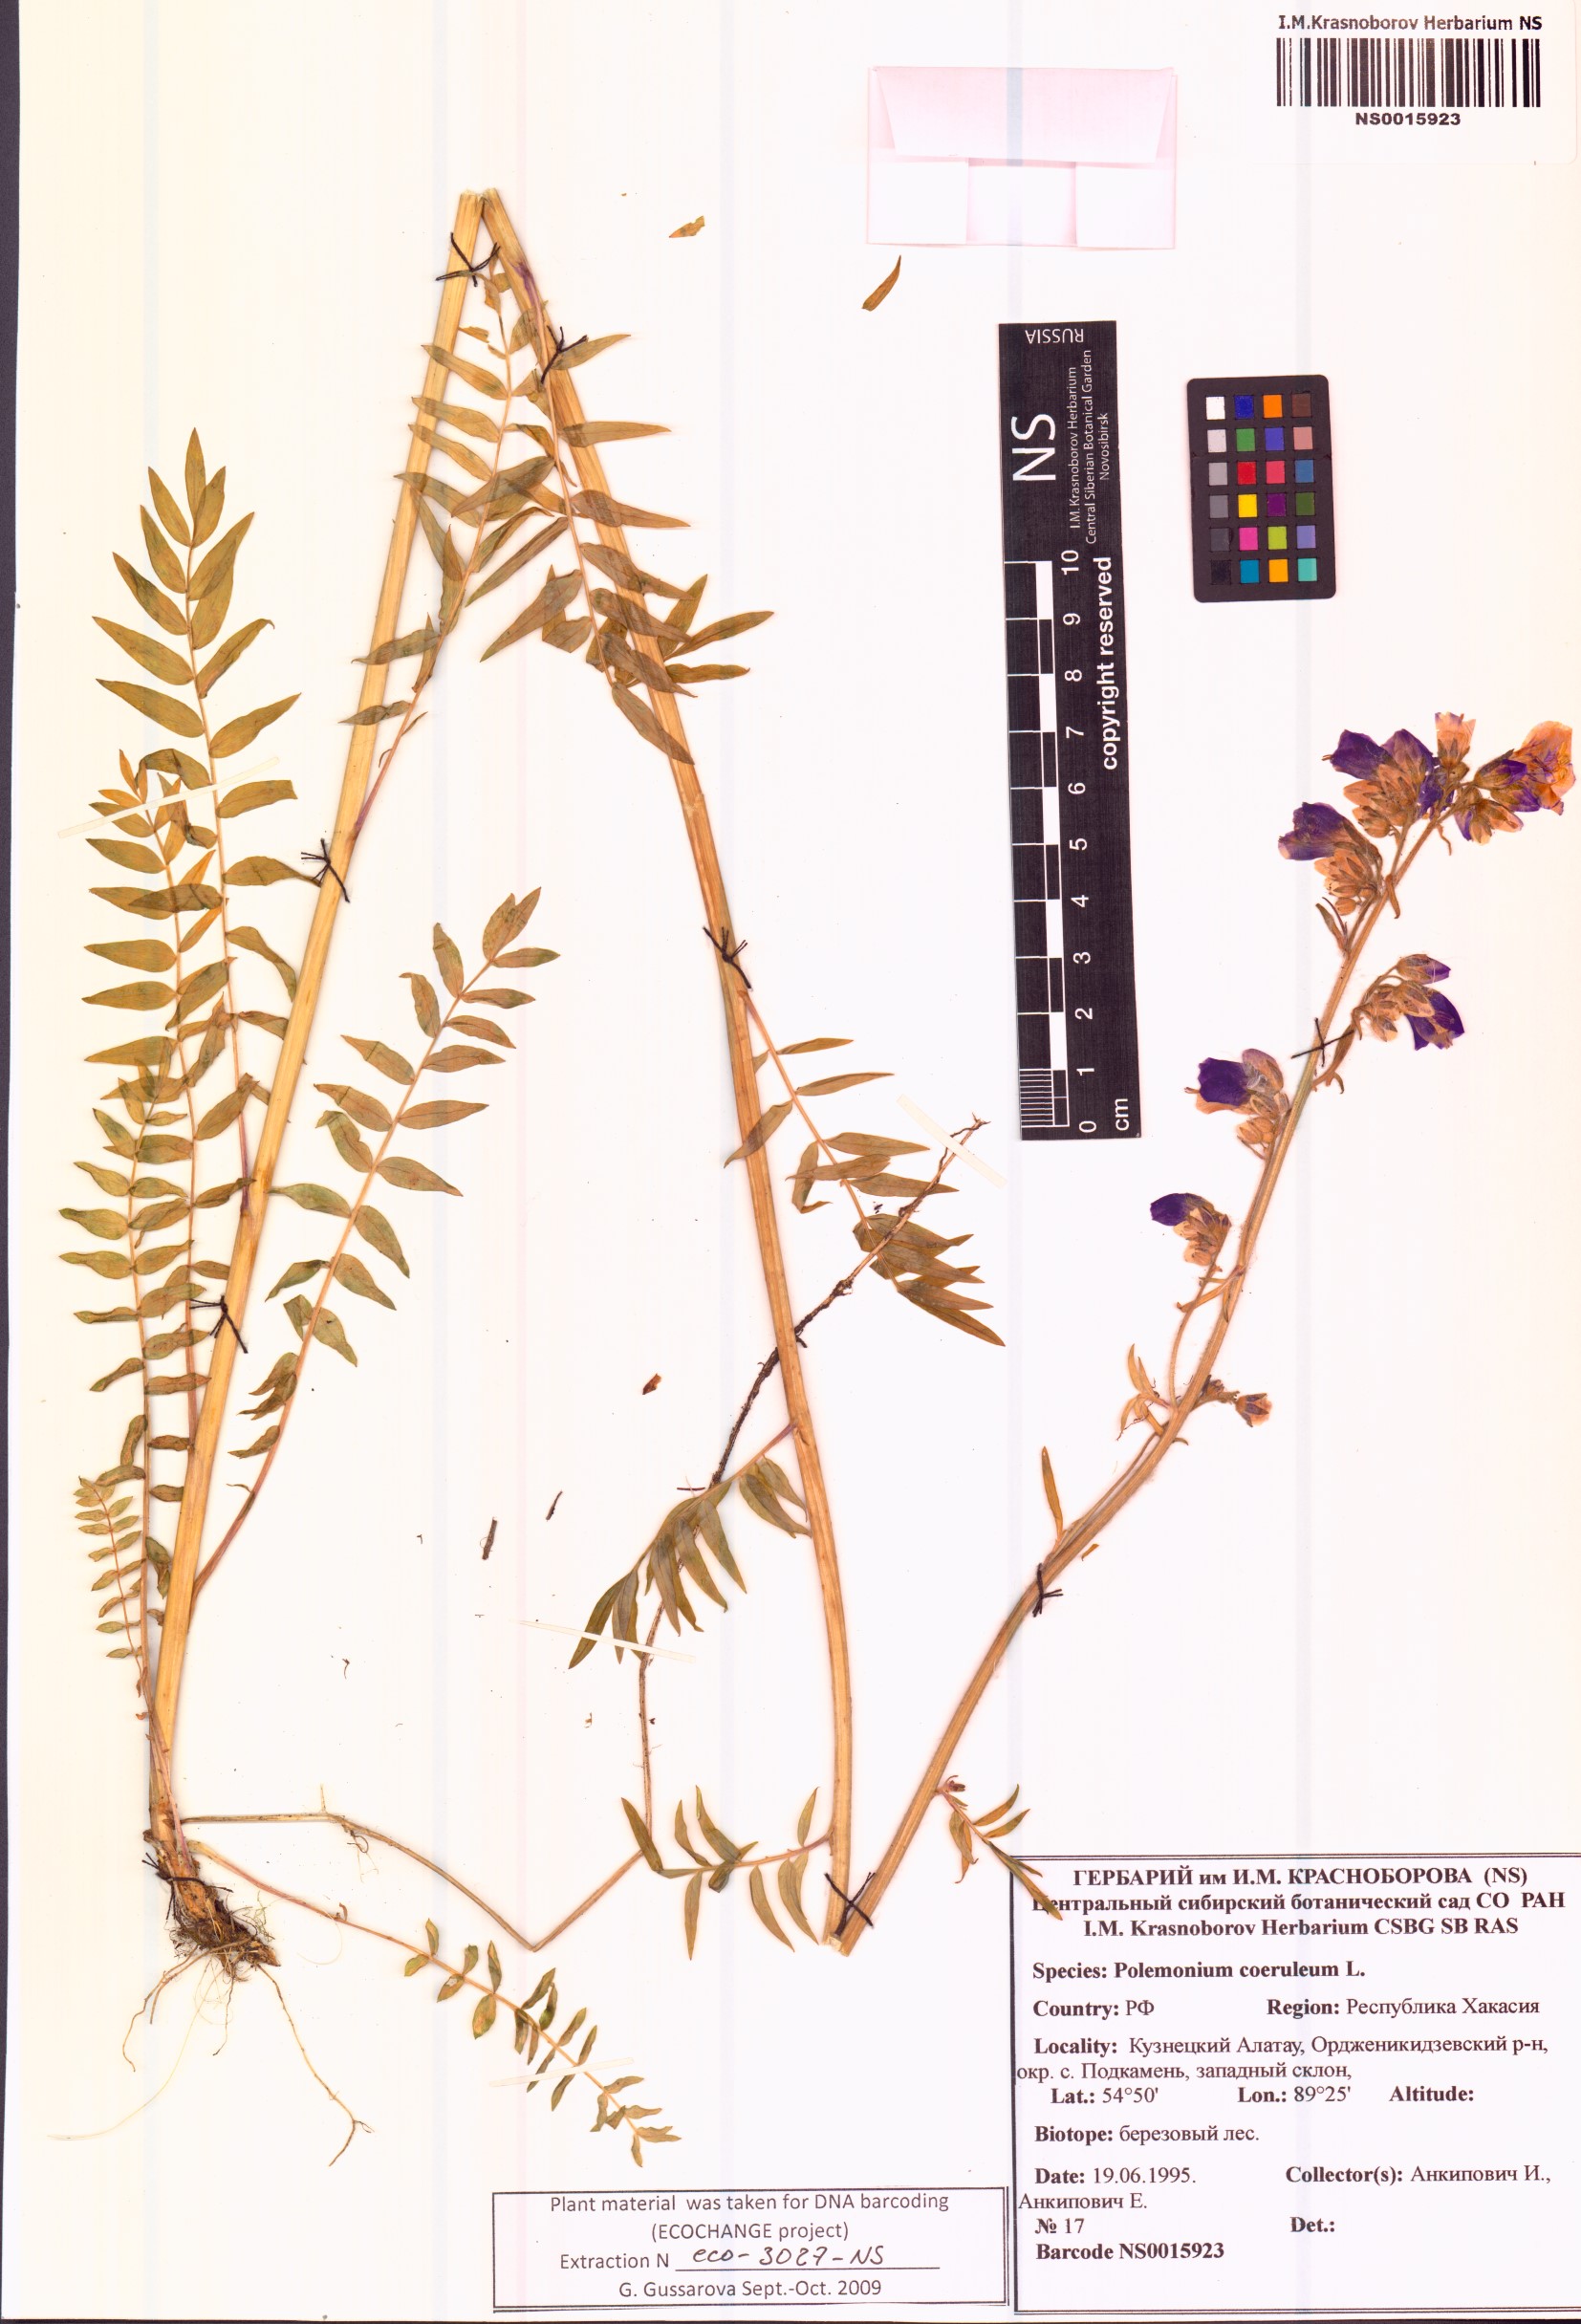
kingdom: Plantae
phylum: Tracheophyta
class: Magnoliopsida
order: Ericales
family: Polemoniaceae
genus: Polemonium
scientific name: Polemonium caeruleum
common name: Jacob's-ladder
